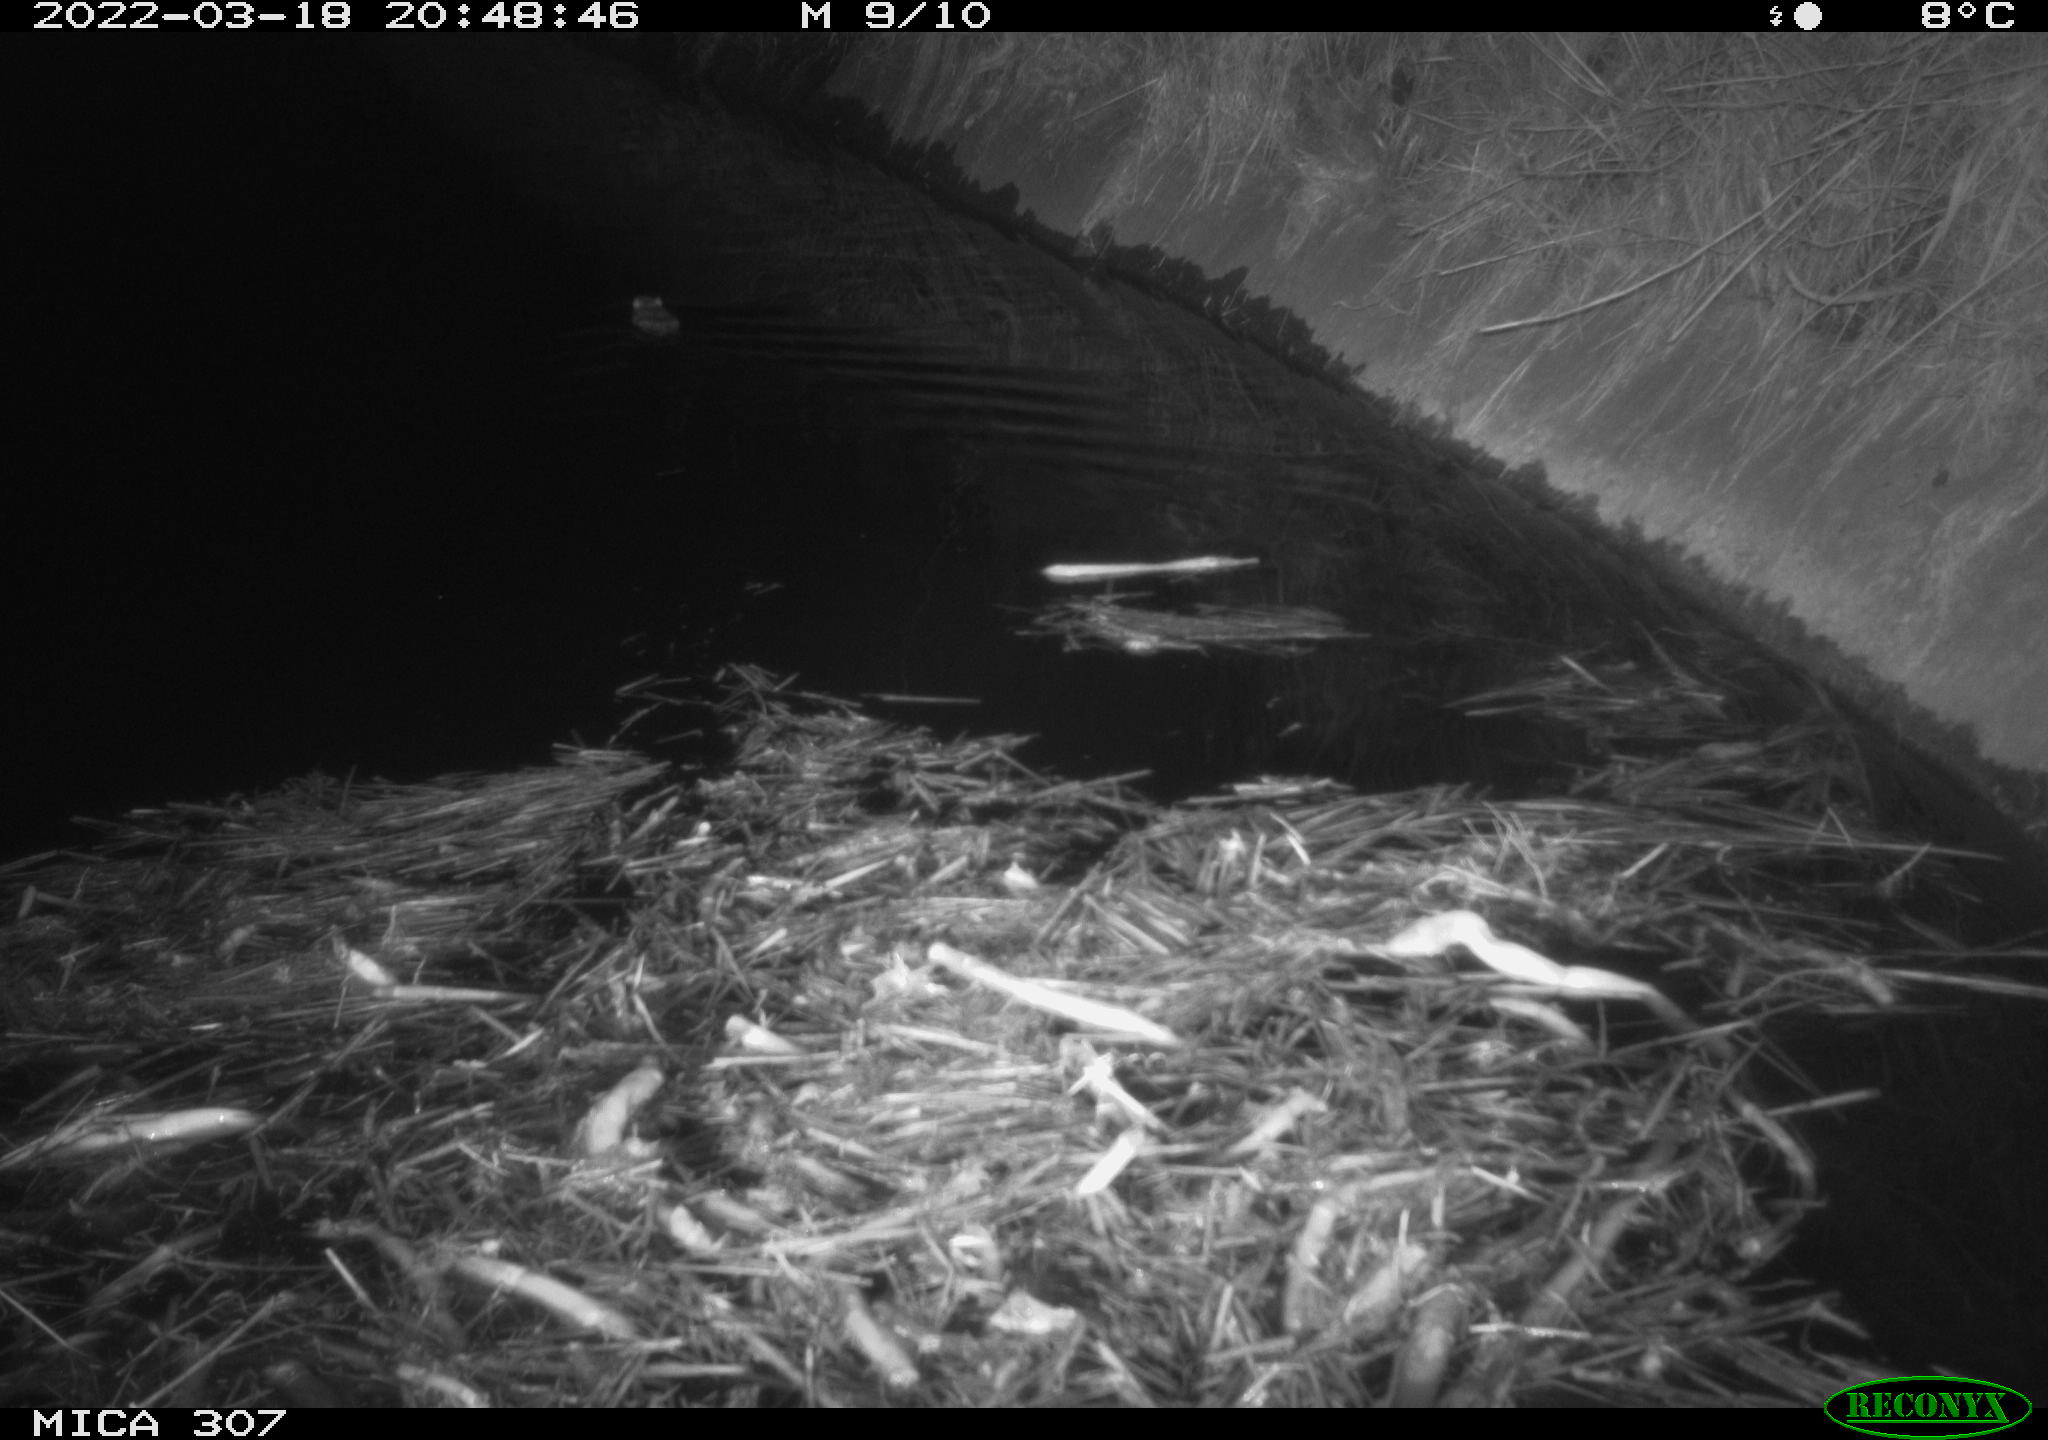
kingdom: Animalia
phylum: Chordata
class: Mammalia
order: Rodentia
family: Muridae
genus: Rattus
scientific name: Rattus norvegicus
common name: Brown rat
